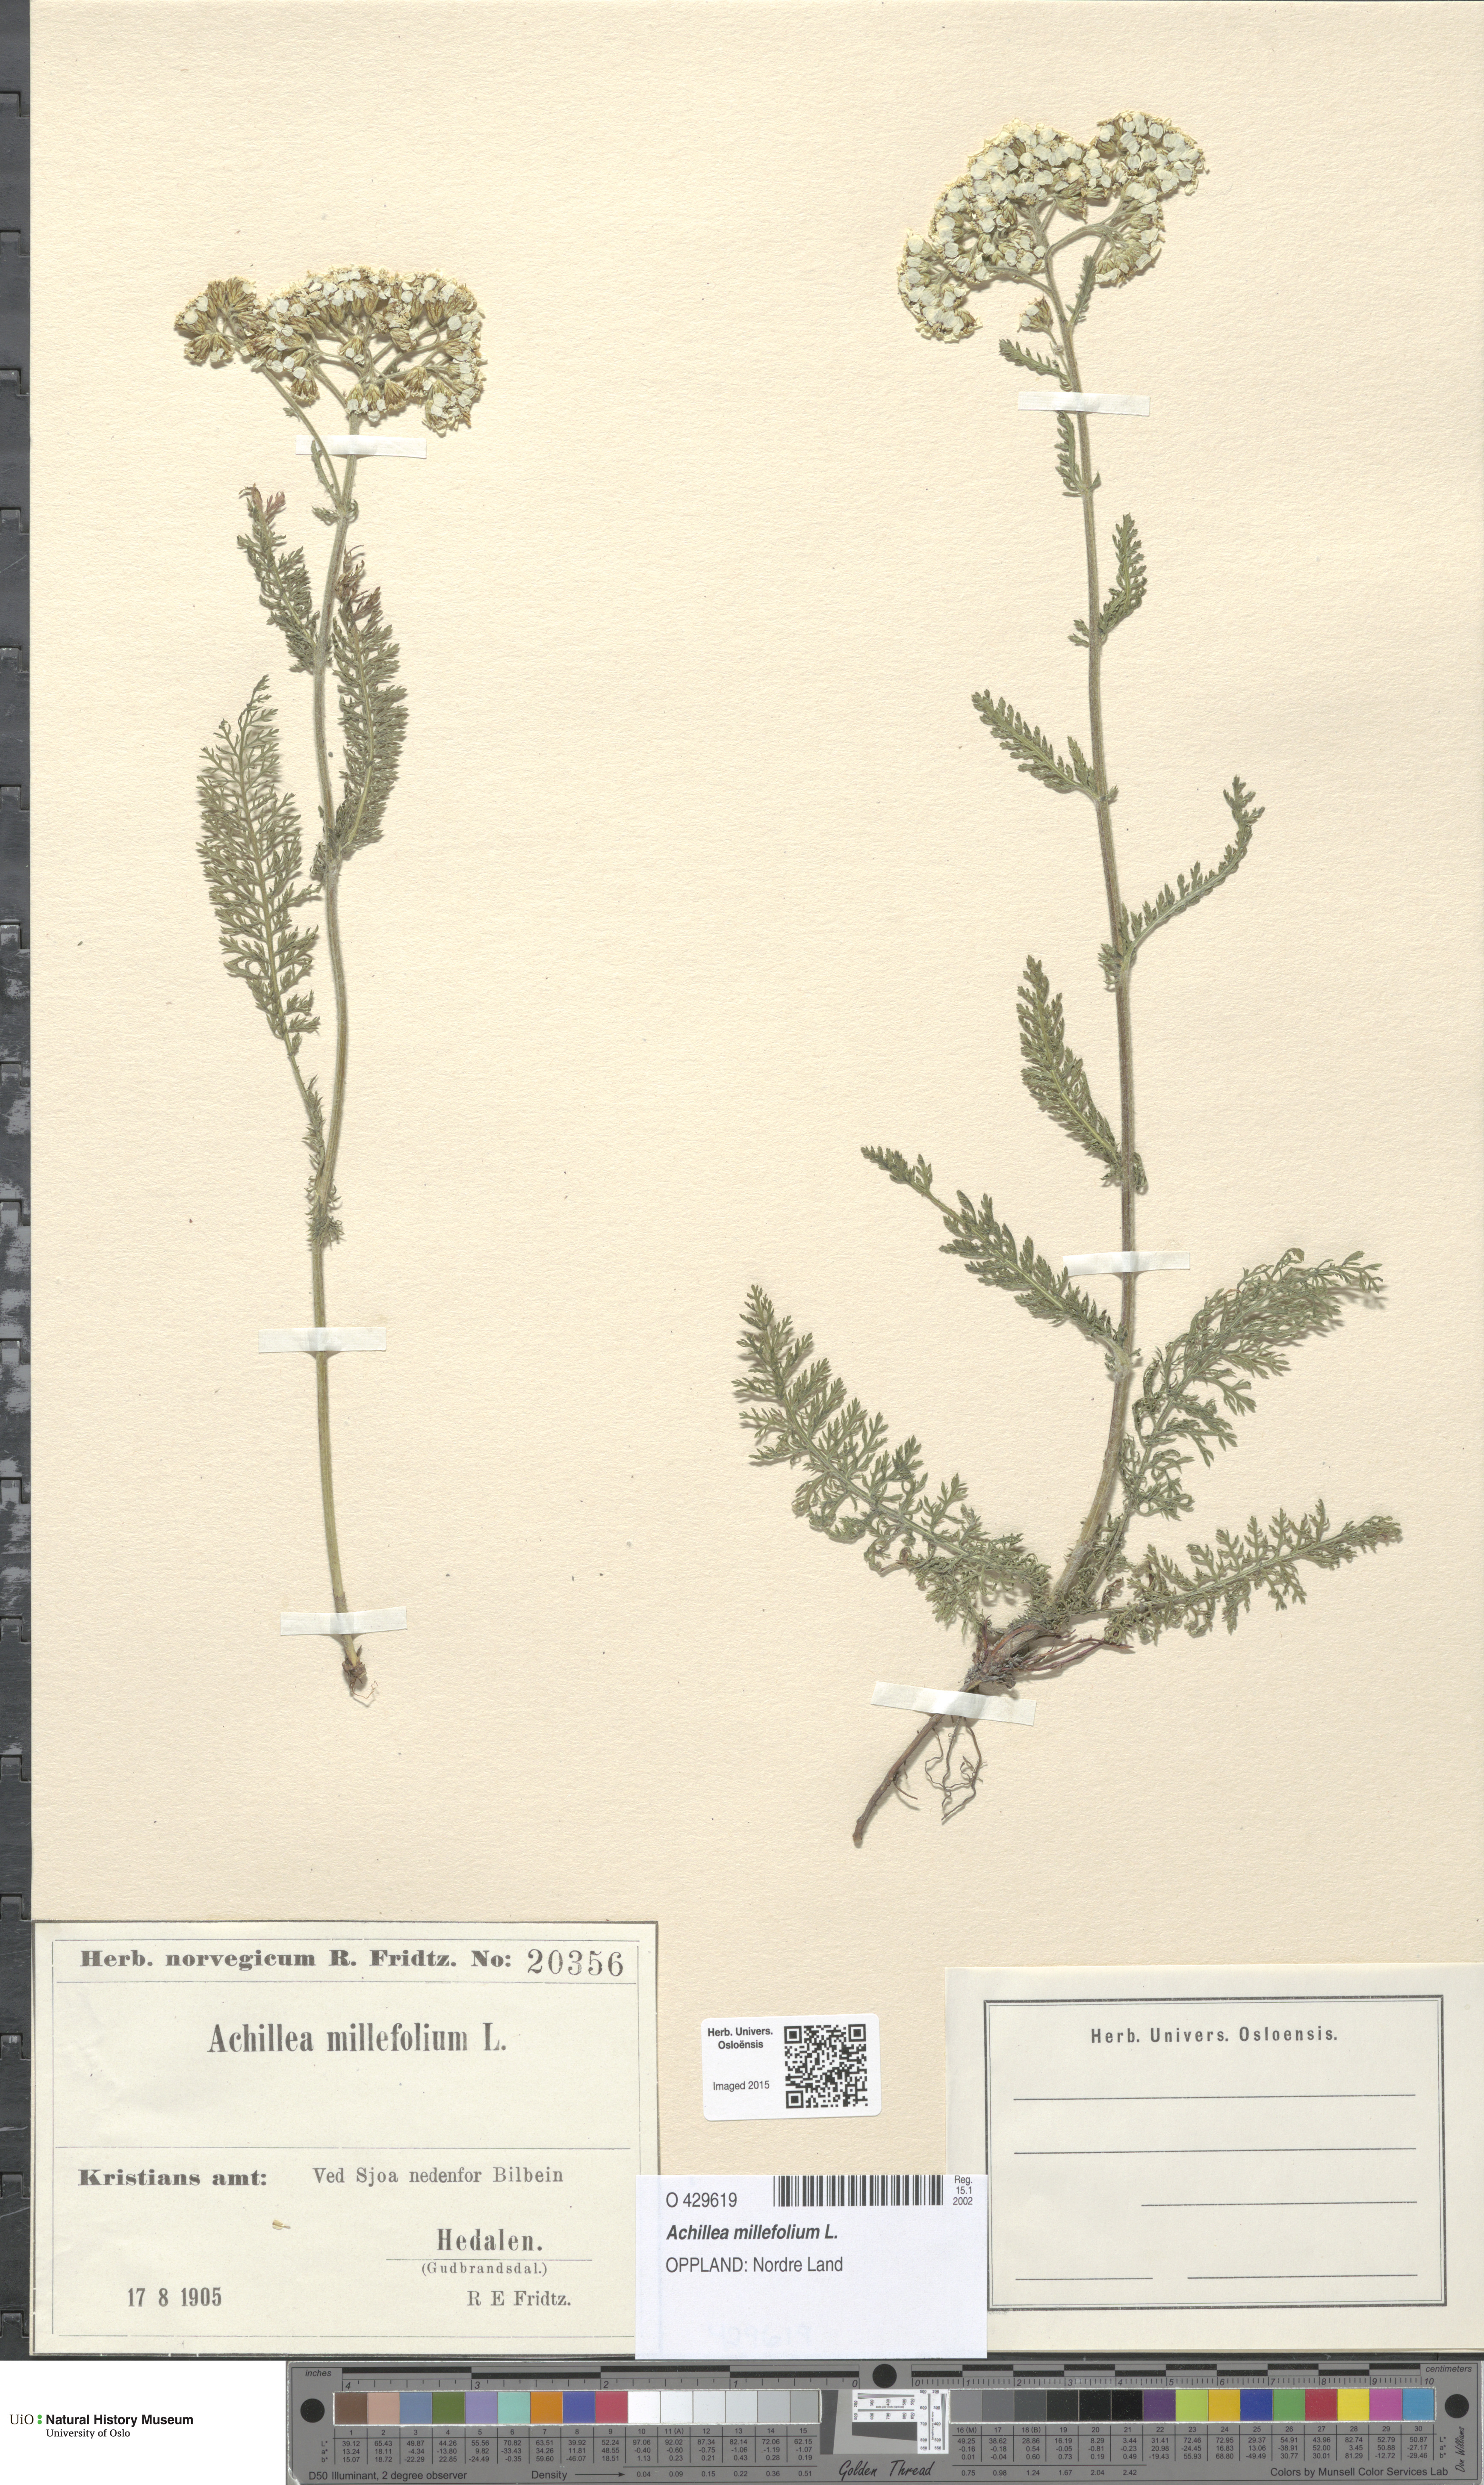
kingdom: Plantae
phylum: Tracheophyta
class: Magnoliopsida
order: Asterales
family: Asteraceae
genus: Achillea
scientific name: Achillea millefolium
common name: Yarrow
